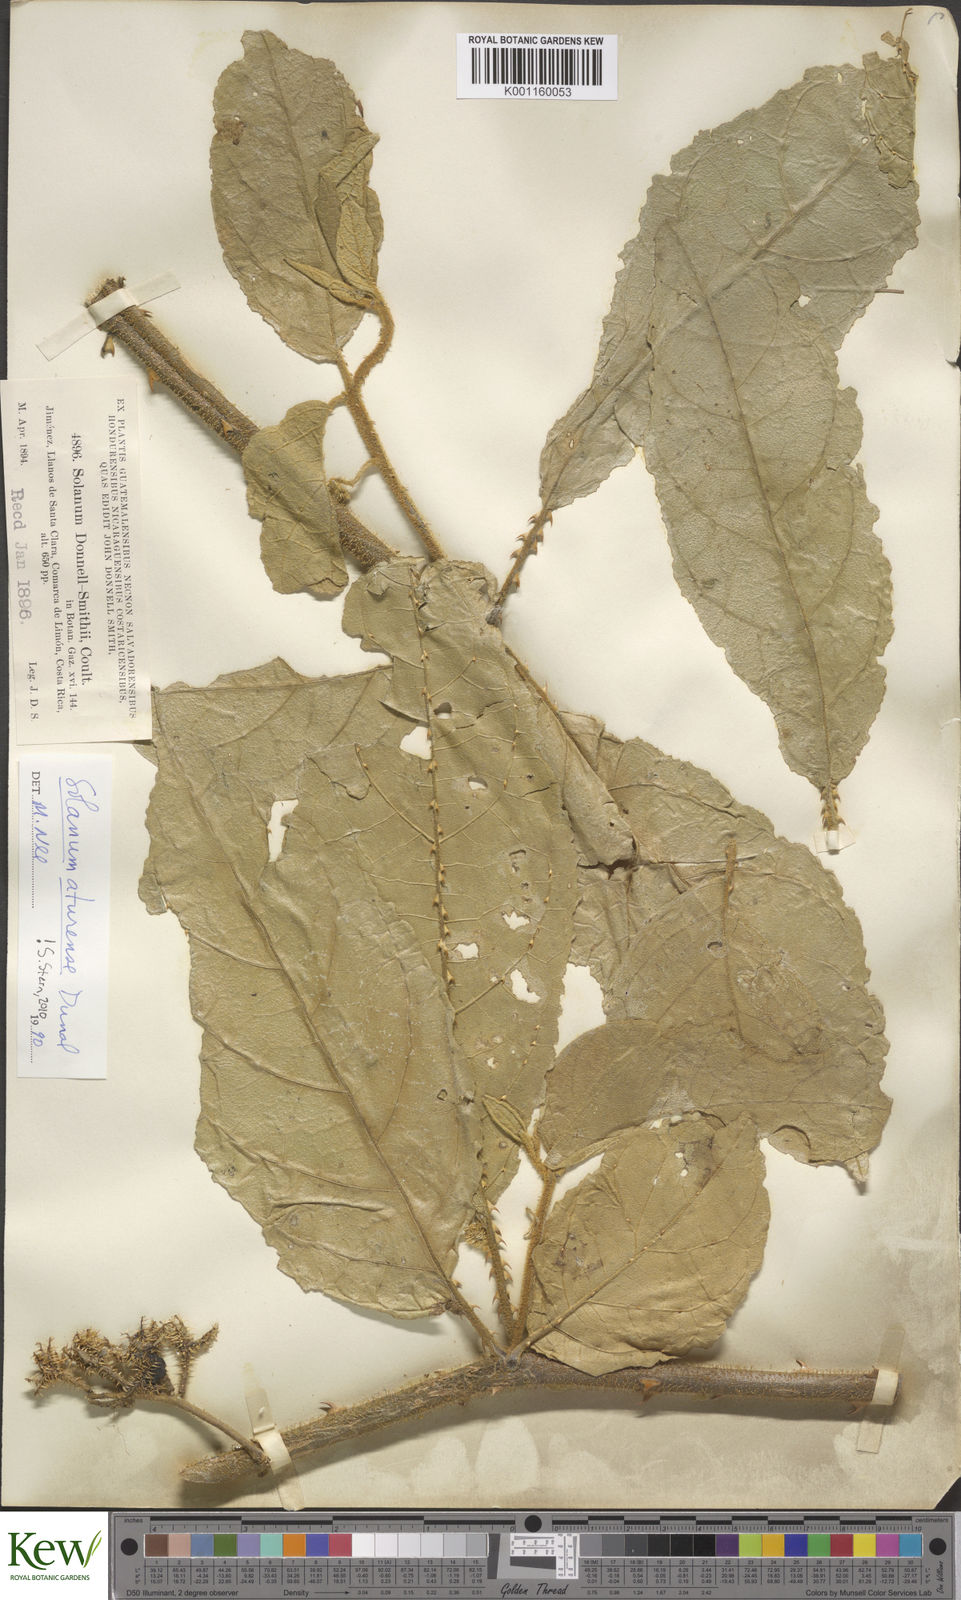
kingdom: Plantae
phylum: Tracheophyta
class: Magnoliopsida
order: Solanales
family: Solanaceae
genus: Solanum
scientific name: Solanum aturense
